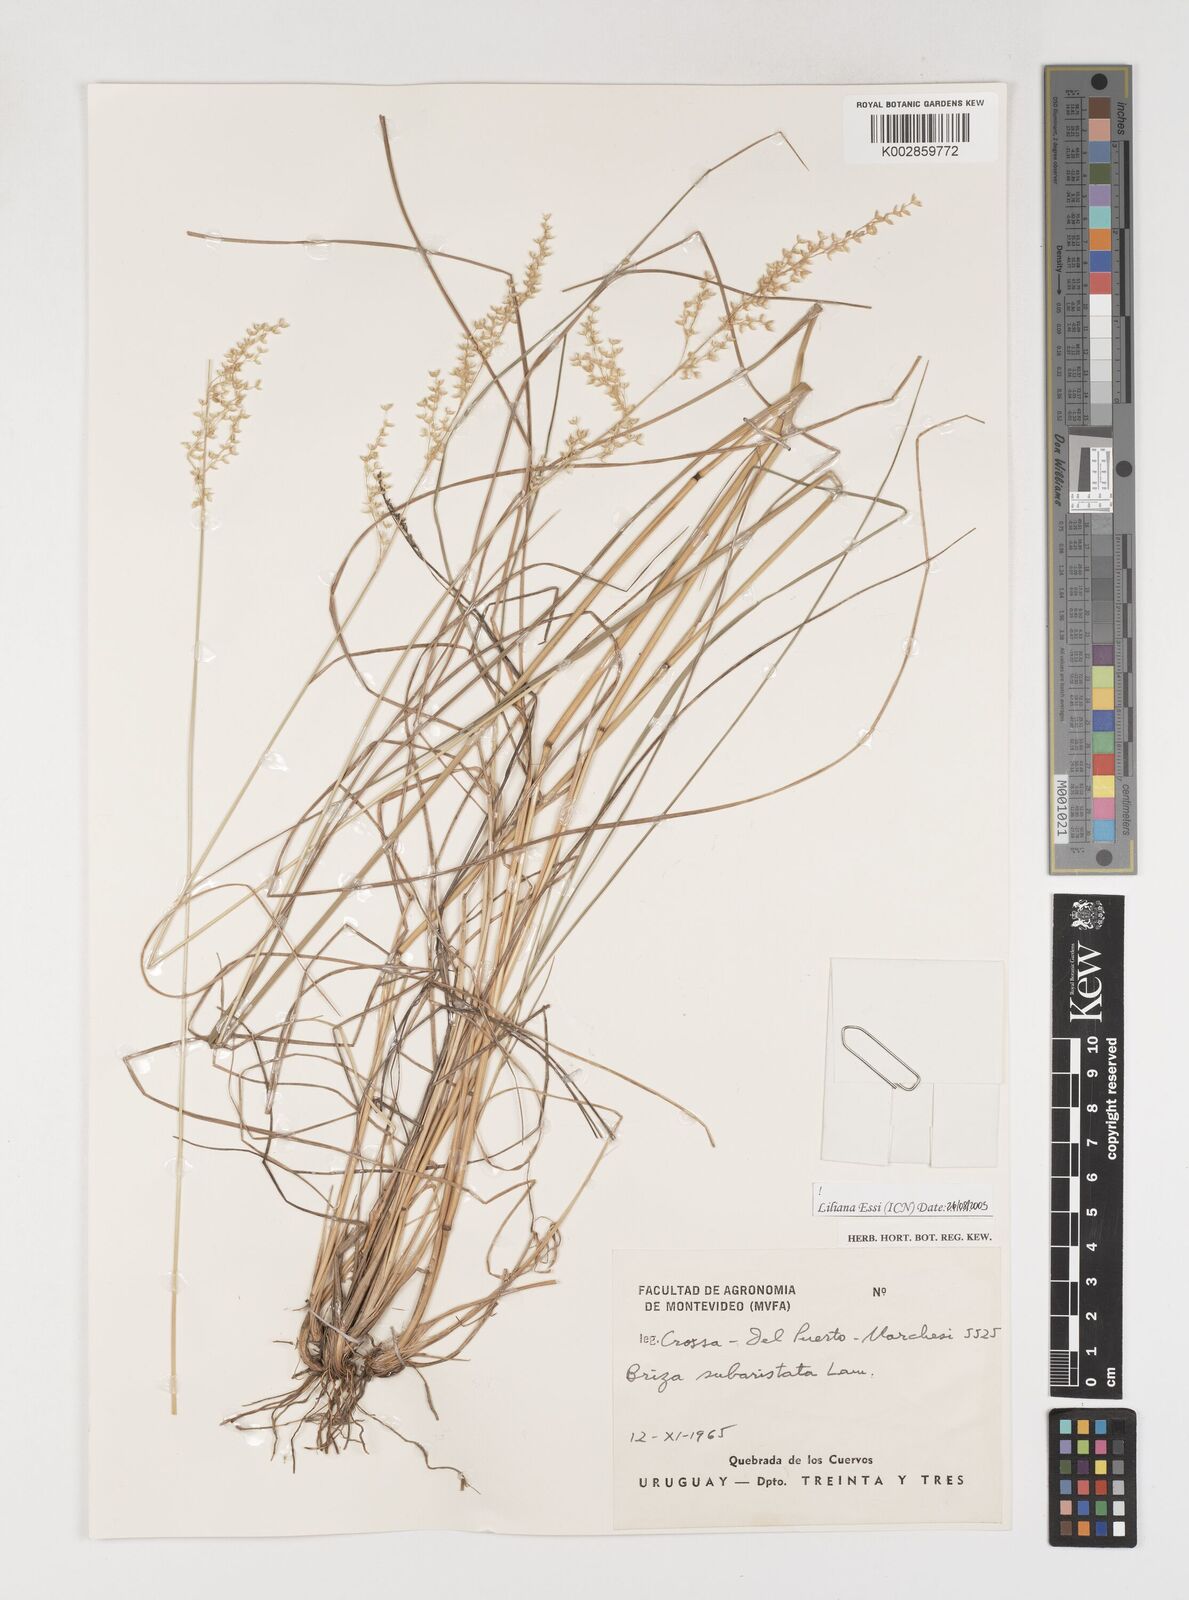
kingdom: Plantae
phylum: Tracheophyta
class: Liliopsida
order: Poales
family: Poaceae
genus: Chascolytrum
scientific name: Chascolytrum subaristatum
